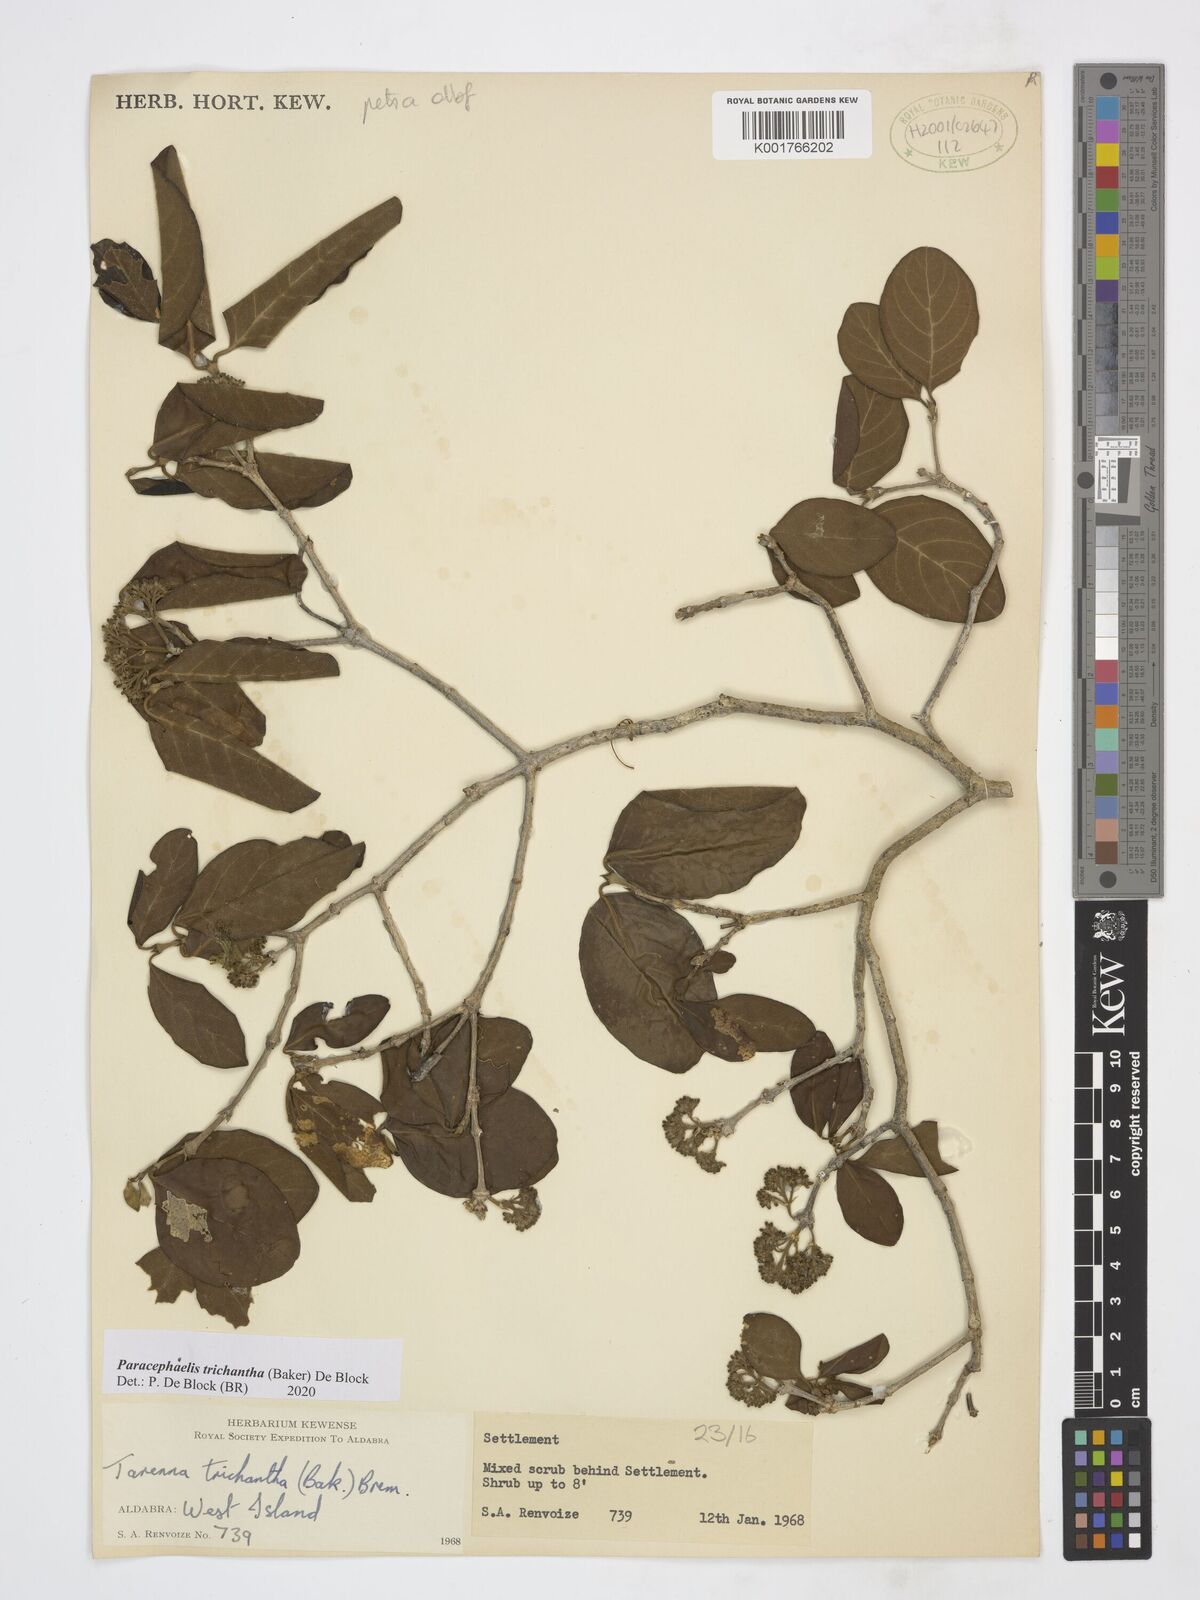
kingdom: Plantae
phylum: Tracheophyta
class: Magnoliopsida
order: Gentianales
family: Rubiaceae
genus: Paracephaelis
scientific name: Paracephaelis trichantha
